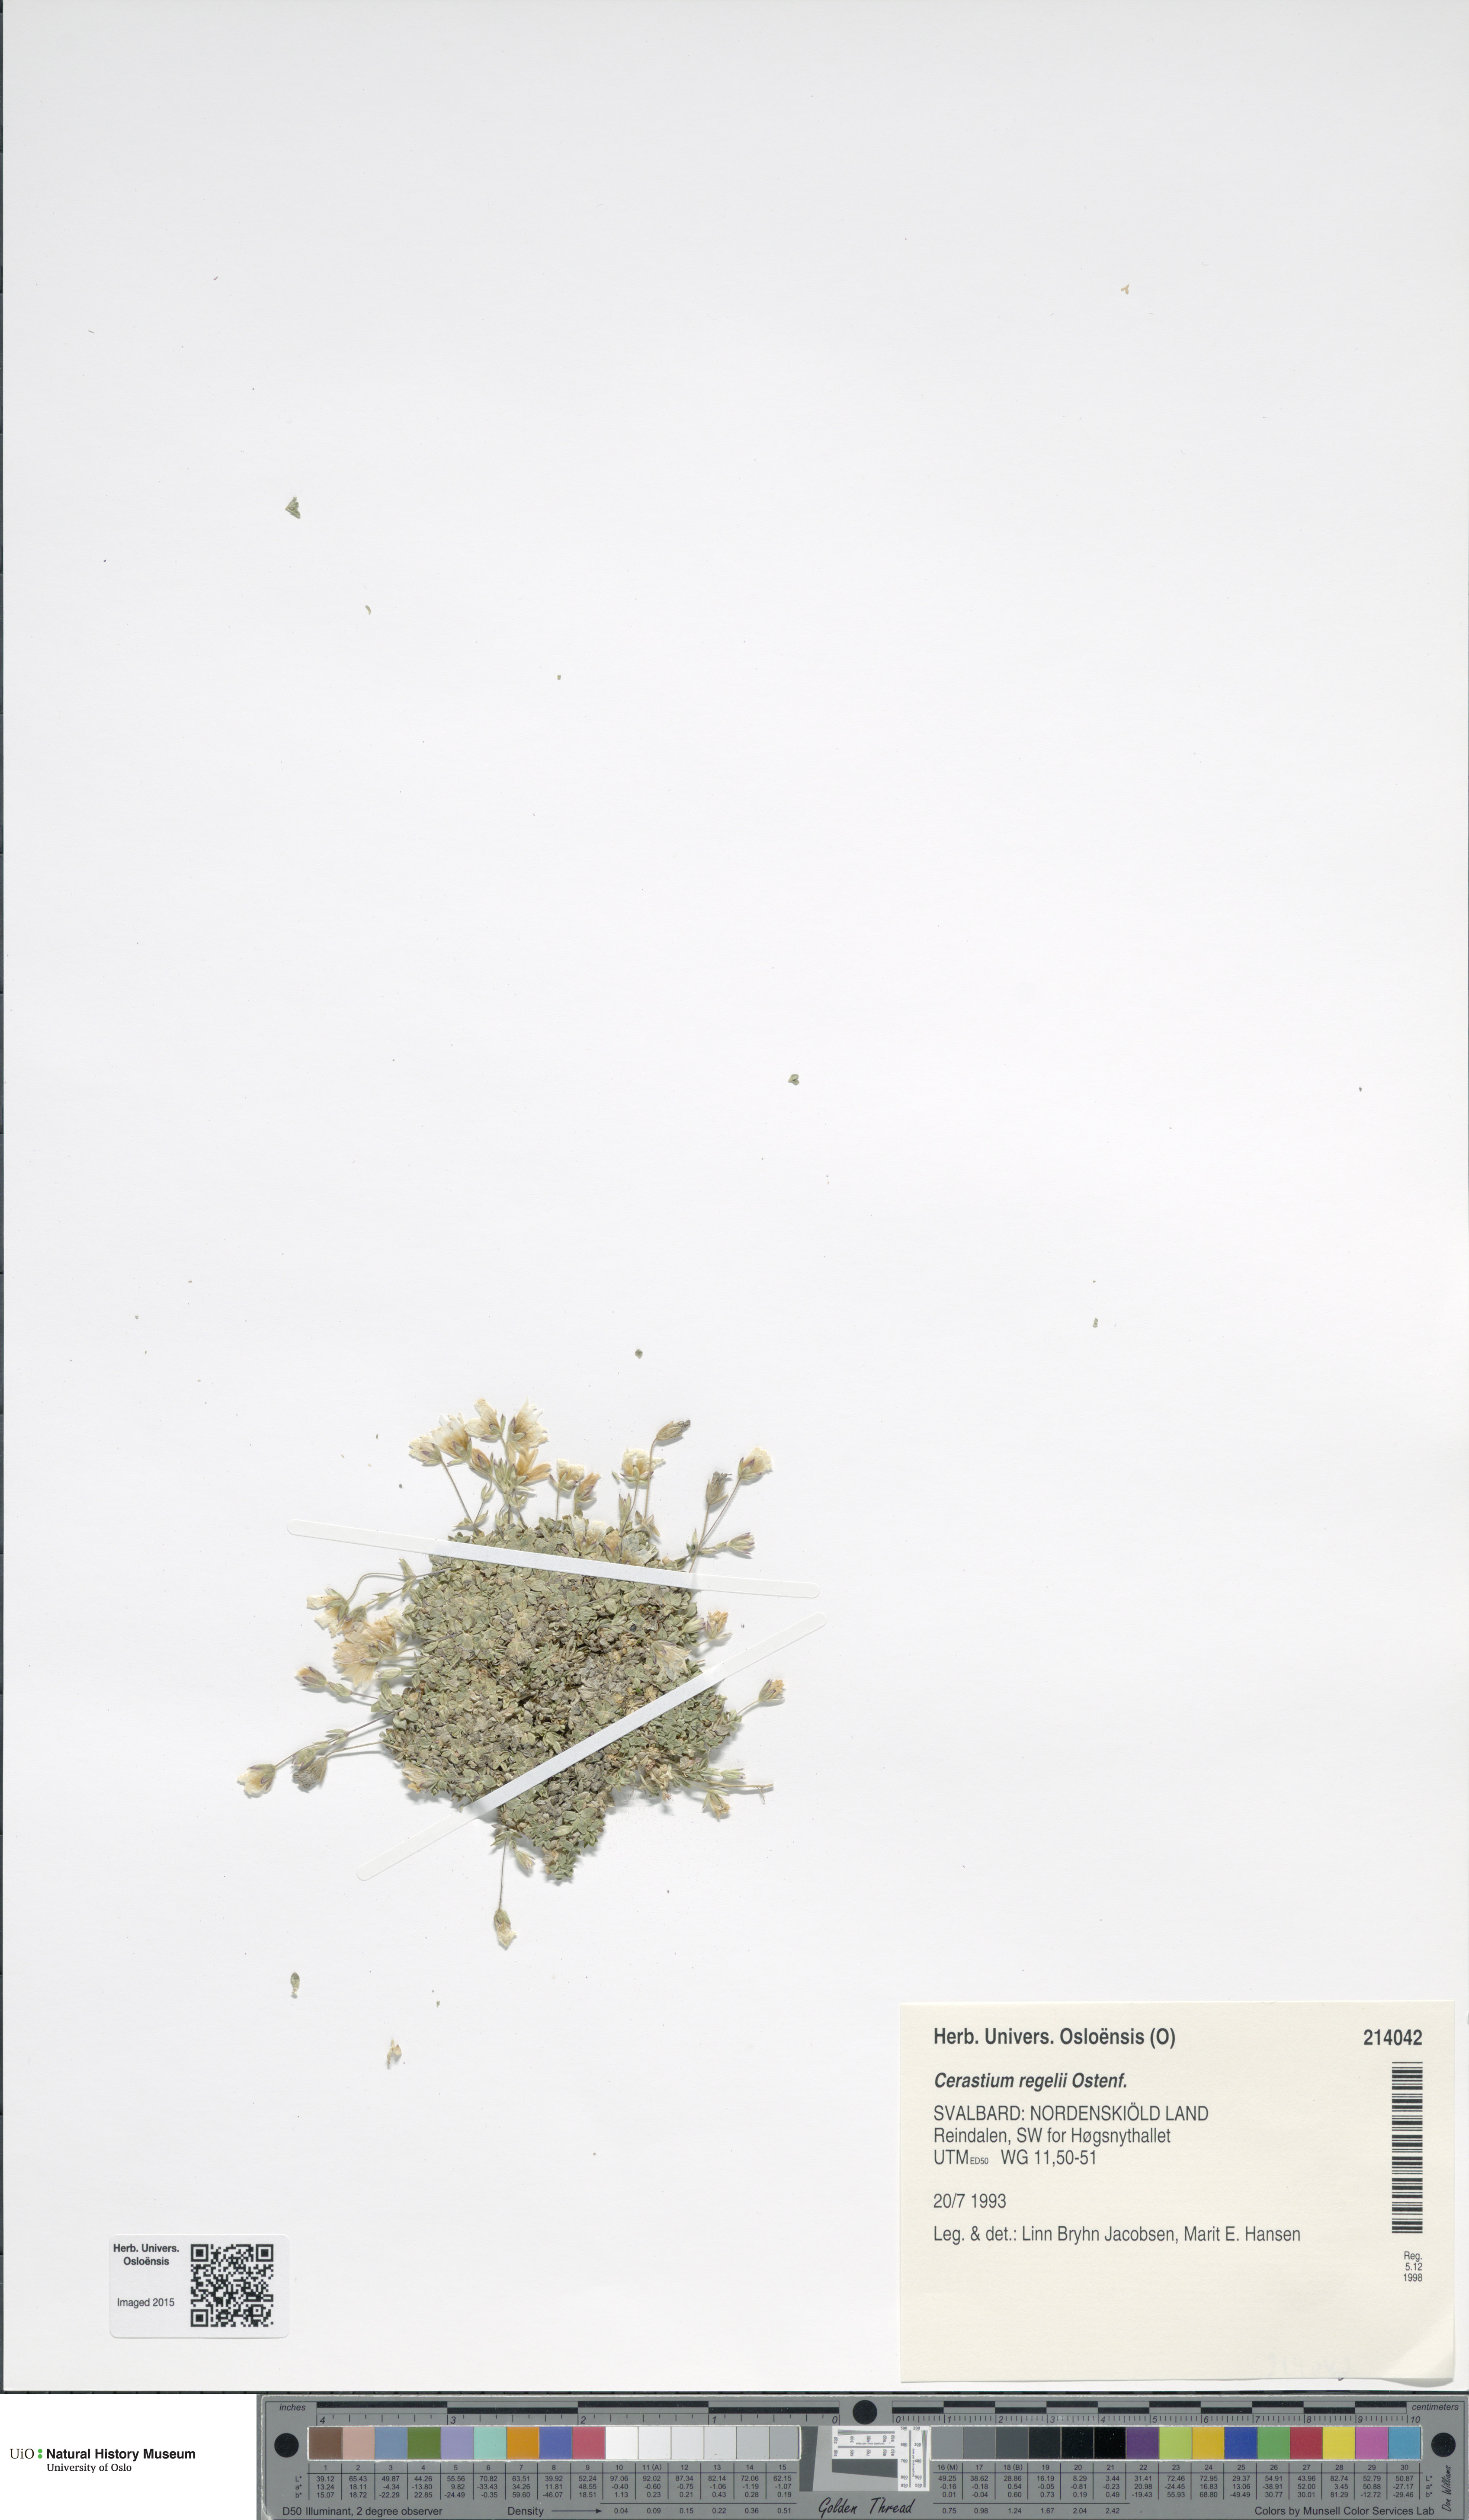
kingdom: Plantae
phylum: Tracheophyta
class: Magnoliopsida
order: Caryophyllales
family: Caryophyllaceae
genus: Cerastium
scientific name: Cerastium regelii
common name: Regel's chickweed
